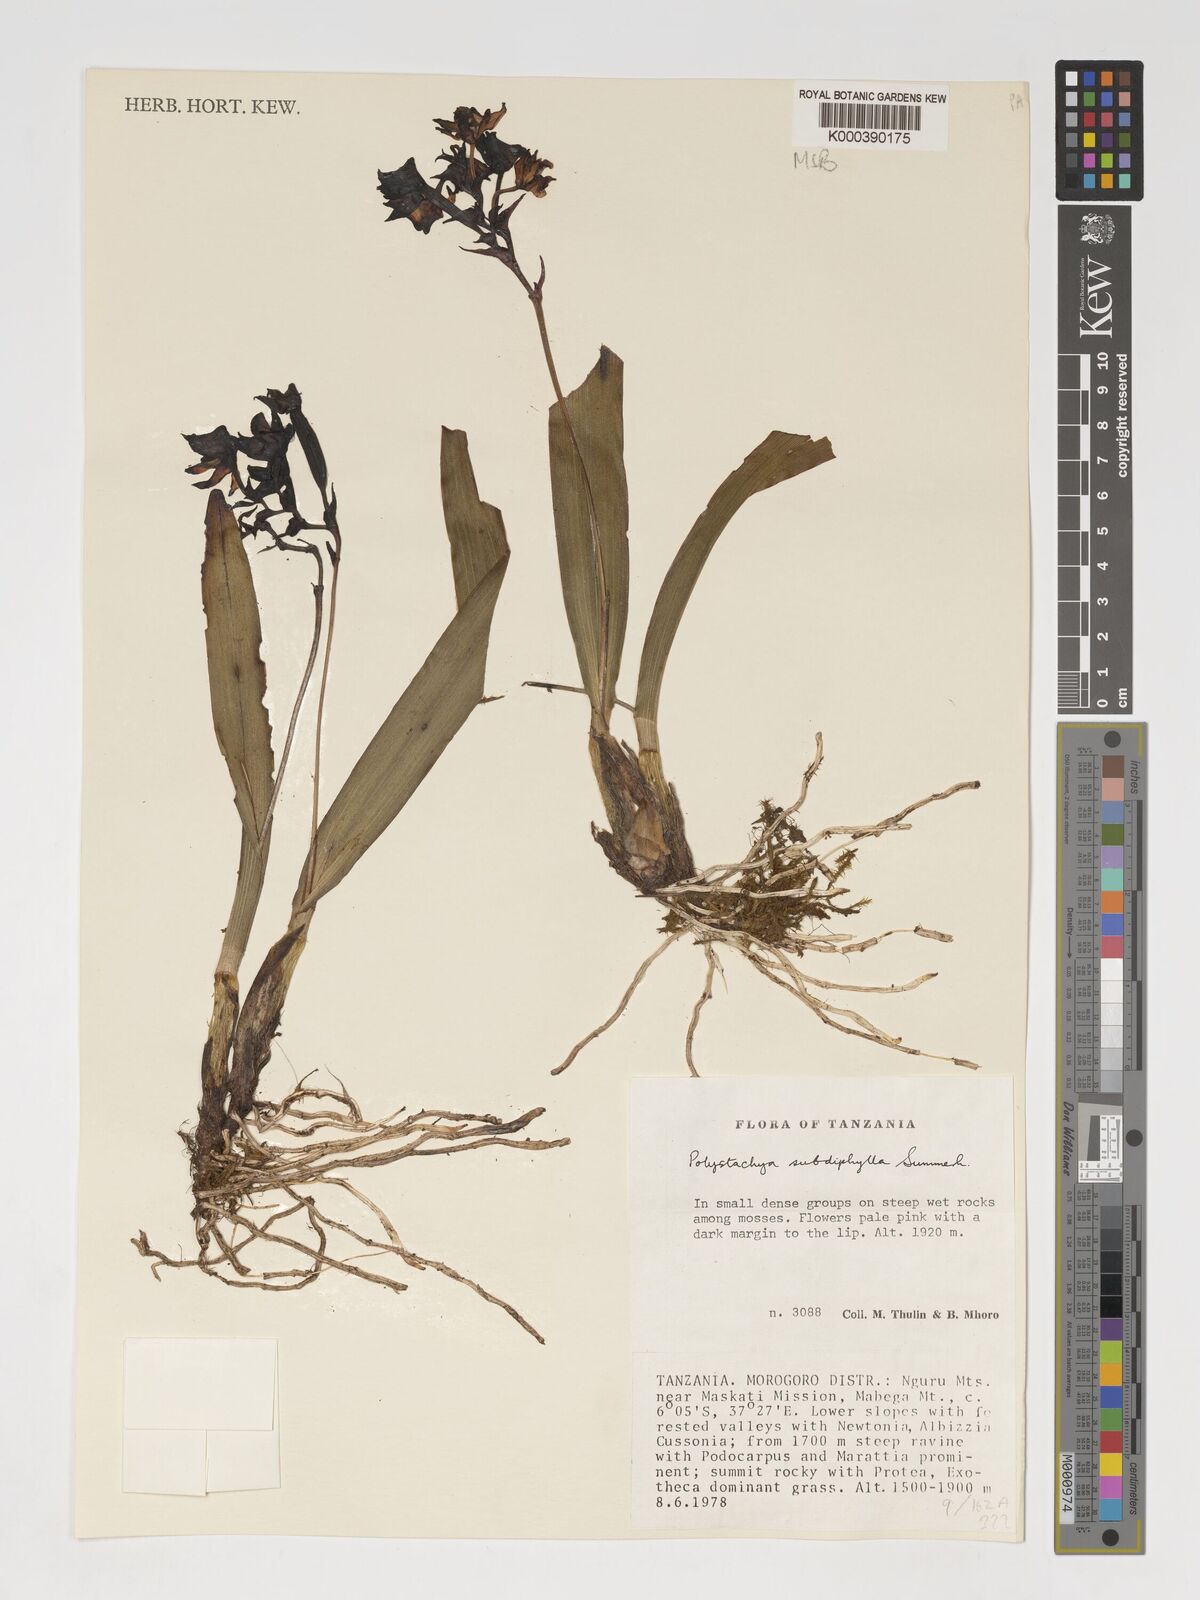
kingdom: Plantae
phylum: Tracheophyta
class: Liliopsida
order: Asparagales
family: Orchidaceae
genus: Polystachya
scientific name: Polystachya subdiphylla
